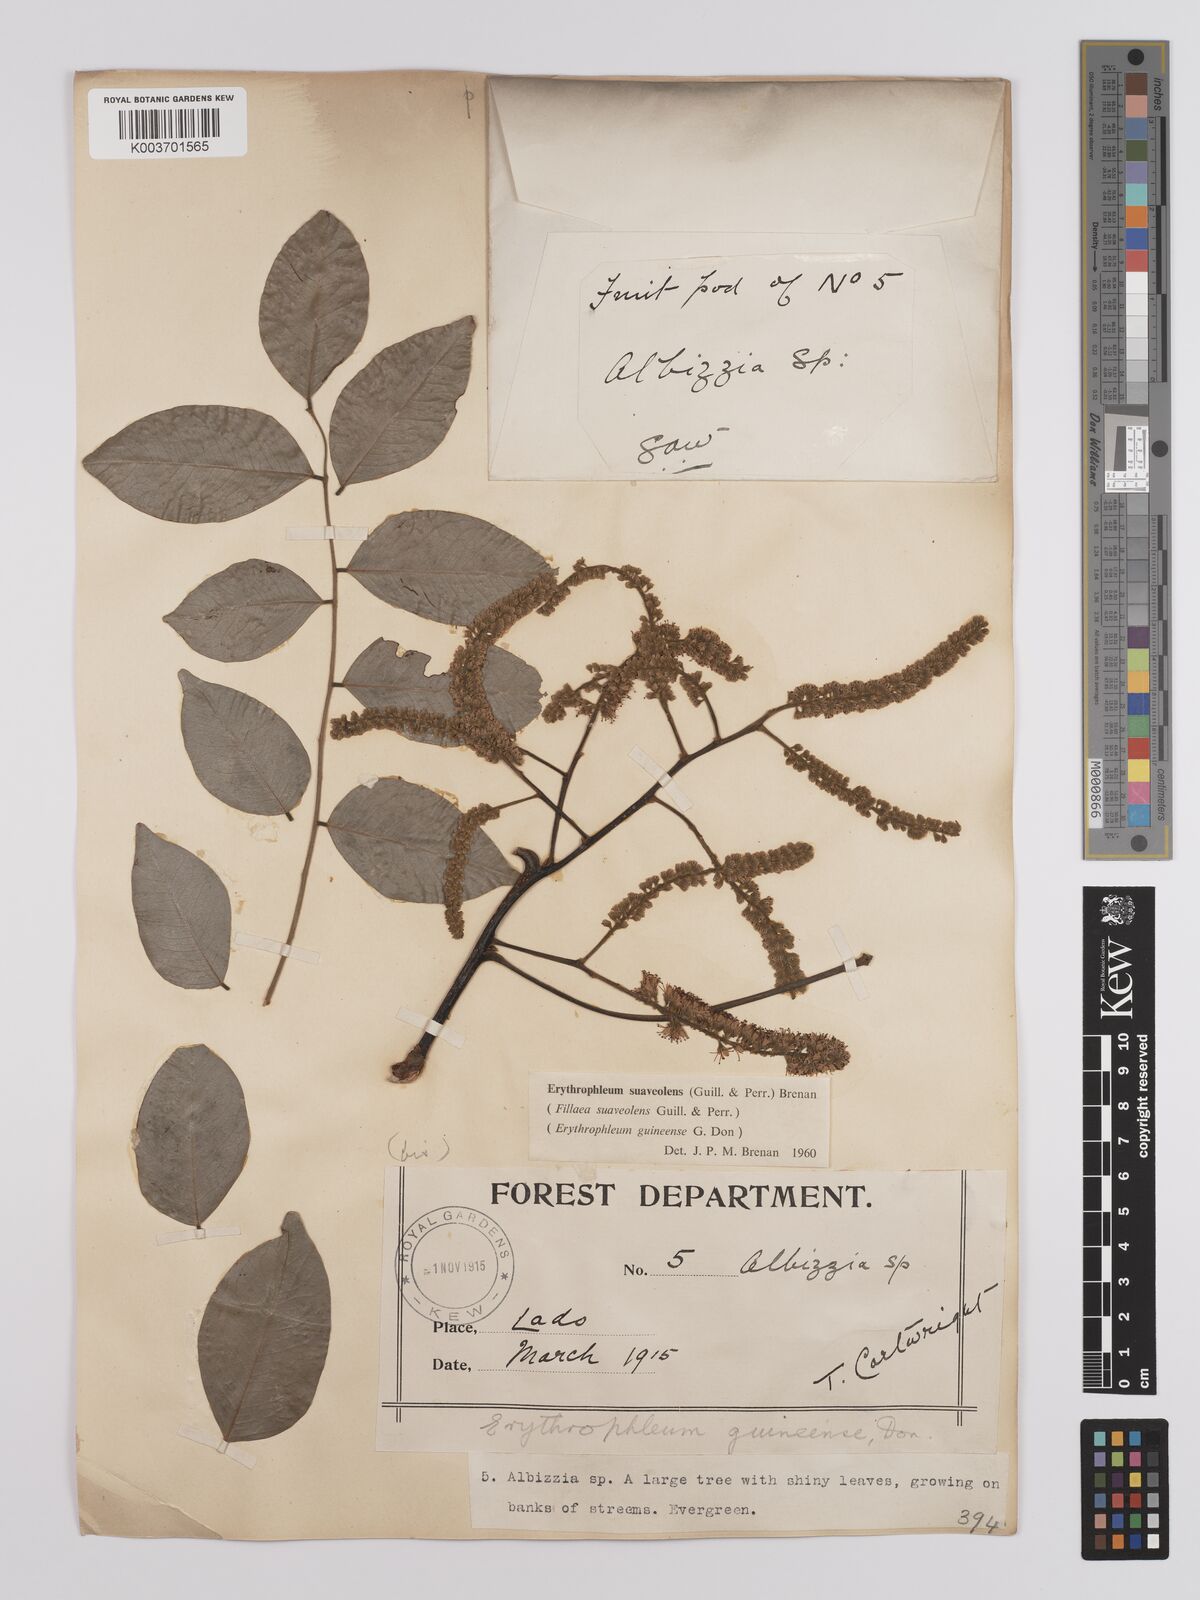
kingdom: Plantae
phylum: Tracheophyta
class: Magnoliopsida
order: Fabales
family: Fabaceae
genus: Erythrophleum
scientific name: Erythrophleum suaveolens
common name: Ordeal tree
